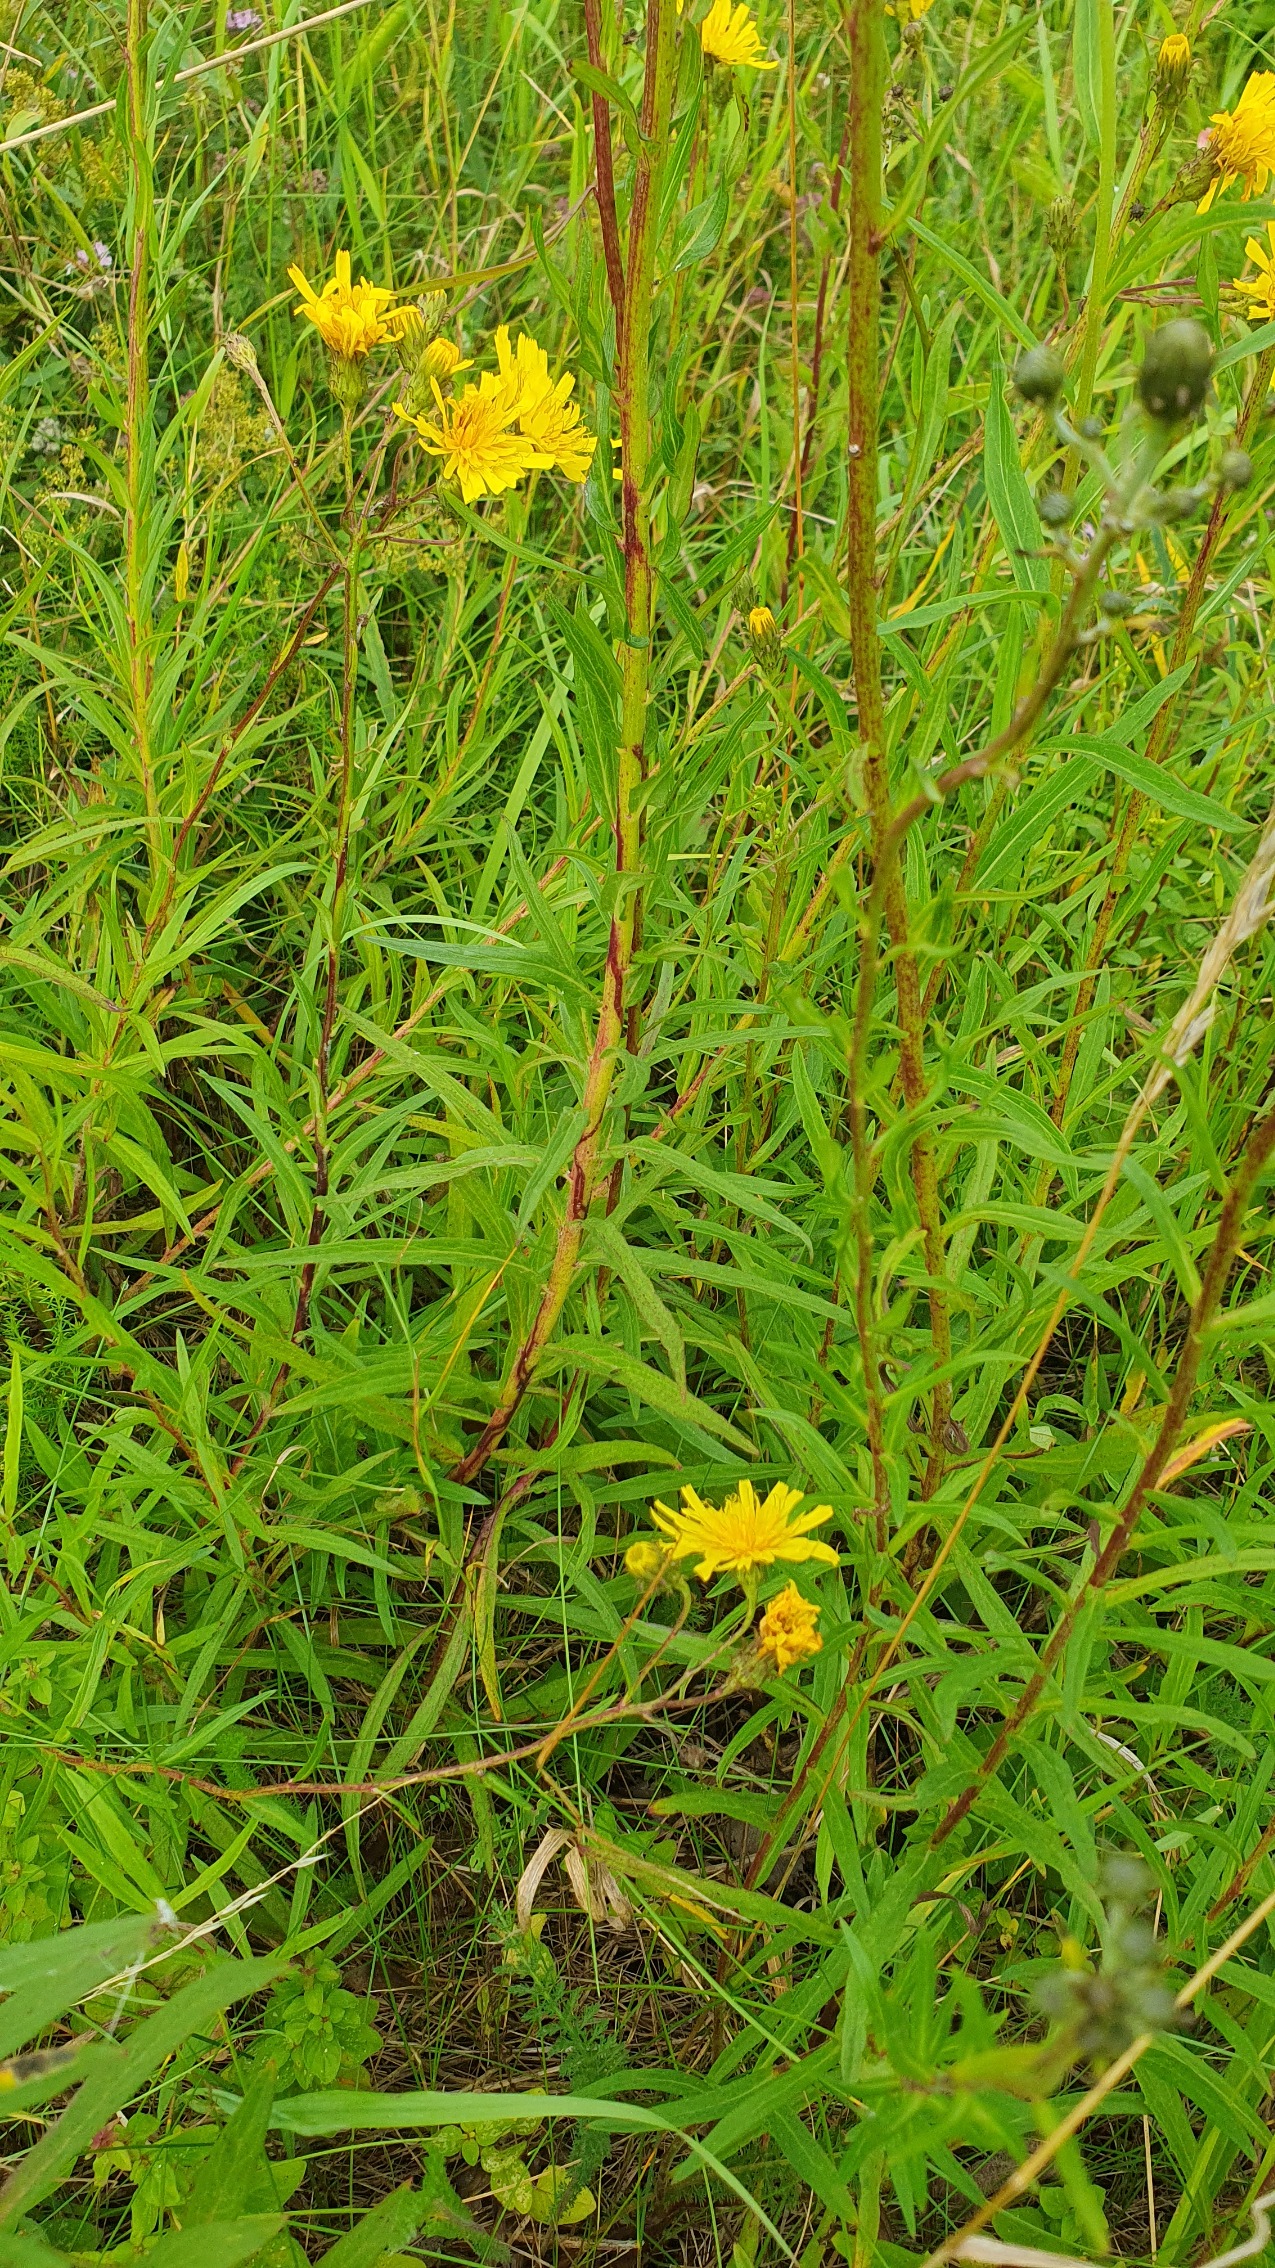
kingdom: Plantae
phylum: Tracheophyta
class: Magnoliopsida
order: Asterales
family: Asteraceae
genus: Hieracium
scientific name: Hieracium umbellatum
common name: Smalbladet høgeurt
